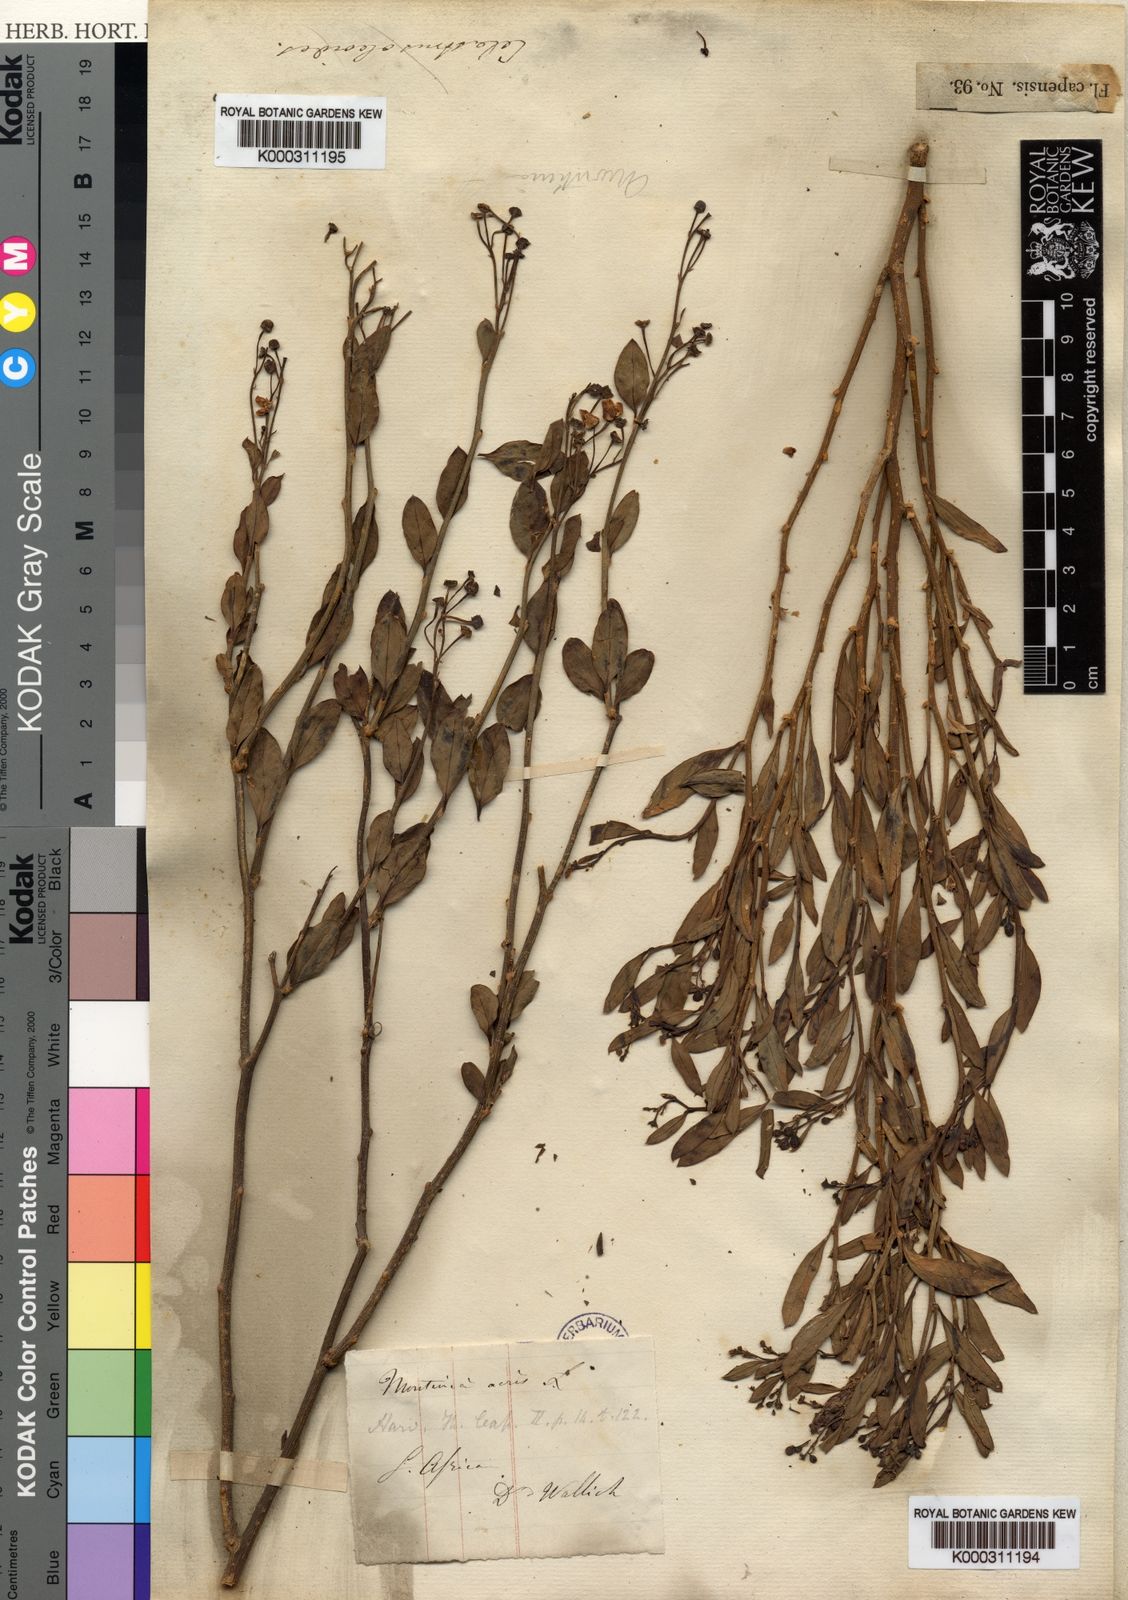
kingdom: Plantae
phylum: Tracheophyta
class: Magnoliopsida
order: Solanales
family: Montiniaceae
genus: Montinia
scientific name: Montinia caryophyllacea
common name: Wild clove-bush
